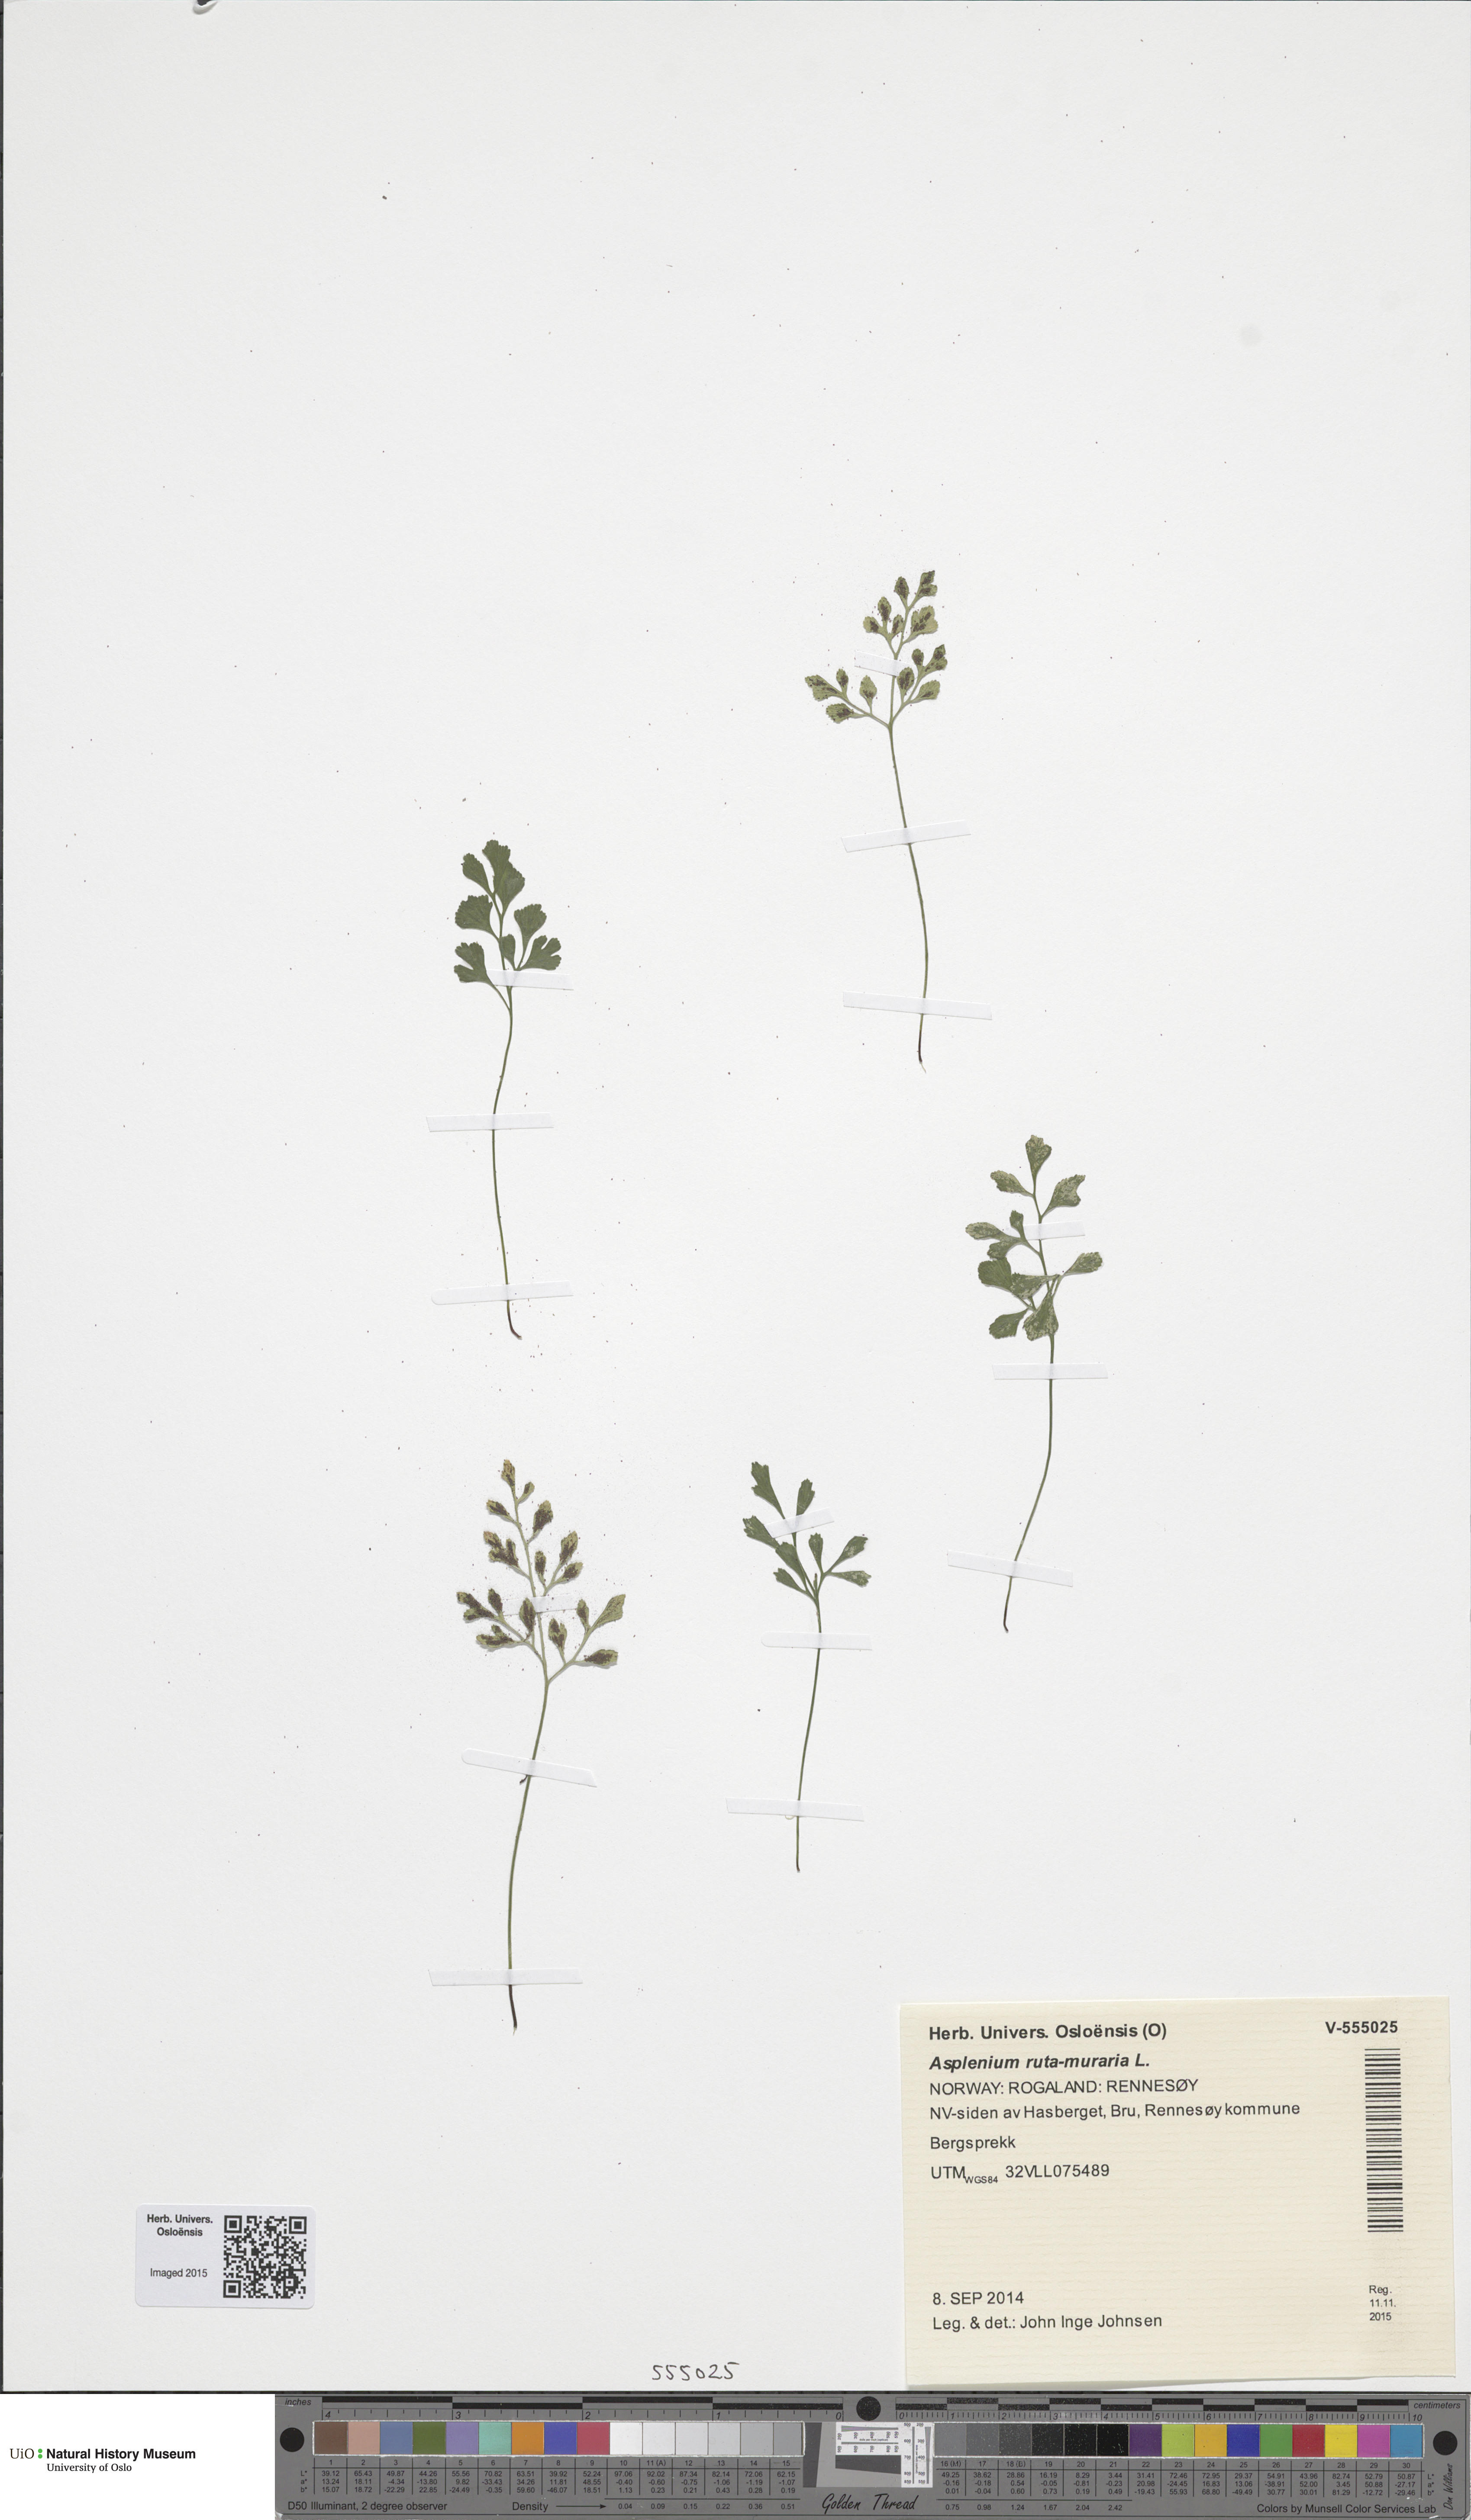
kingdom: Plantae
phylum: Tracheophyta
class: Polypodiopsida
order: Polypodiales
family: Aspleniaceae
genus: Asplenium
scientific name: Asplenium ruta-muraria
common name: Wall-rue
